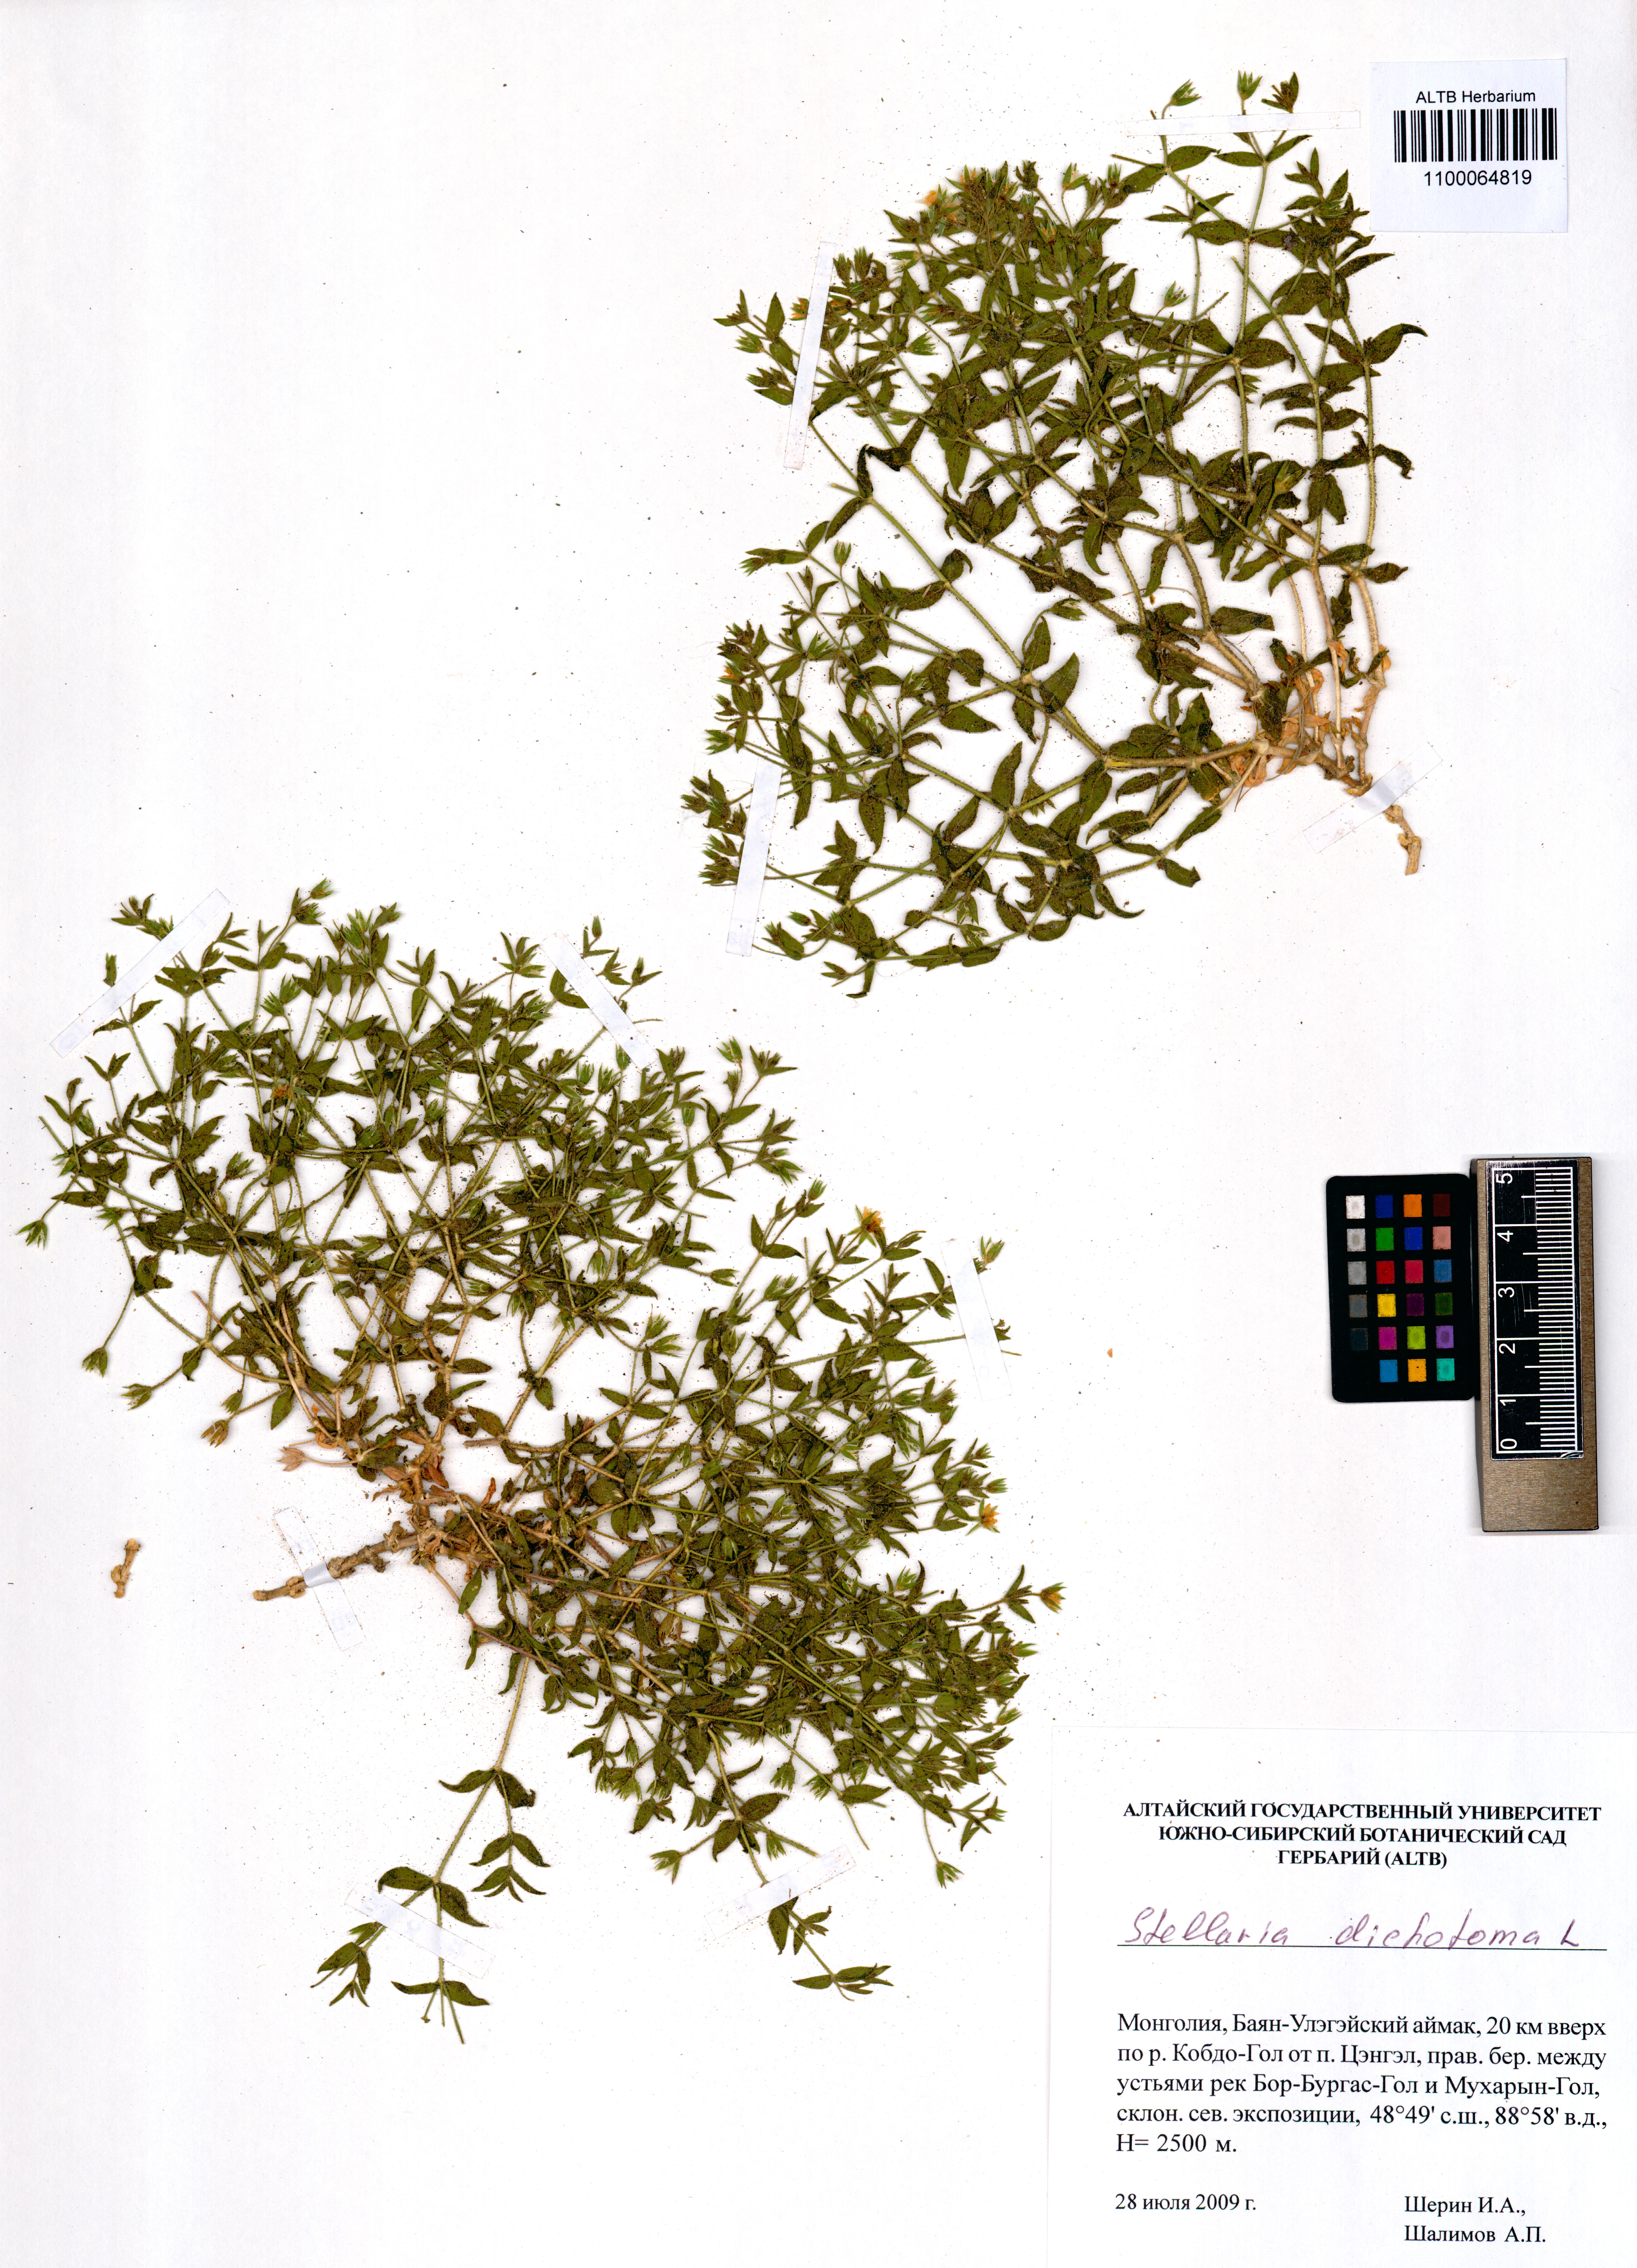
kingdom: Plantae
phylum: Tracheophyta
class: Magnoliopsida
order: Caryophyllales
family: Caryophyllaceae
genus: Mesostemma
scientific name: Mesostemma dichotomum
